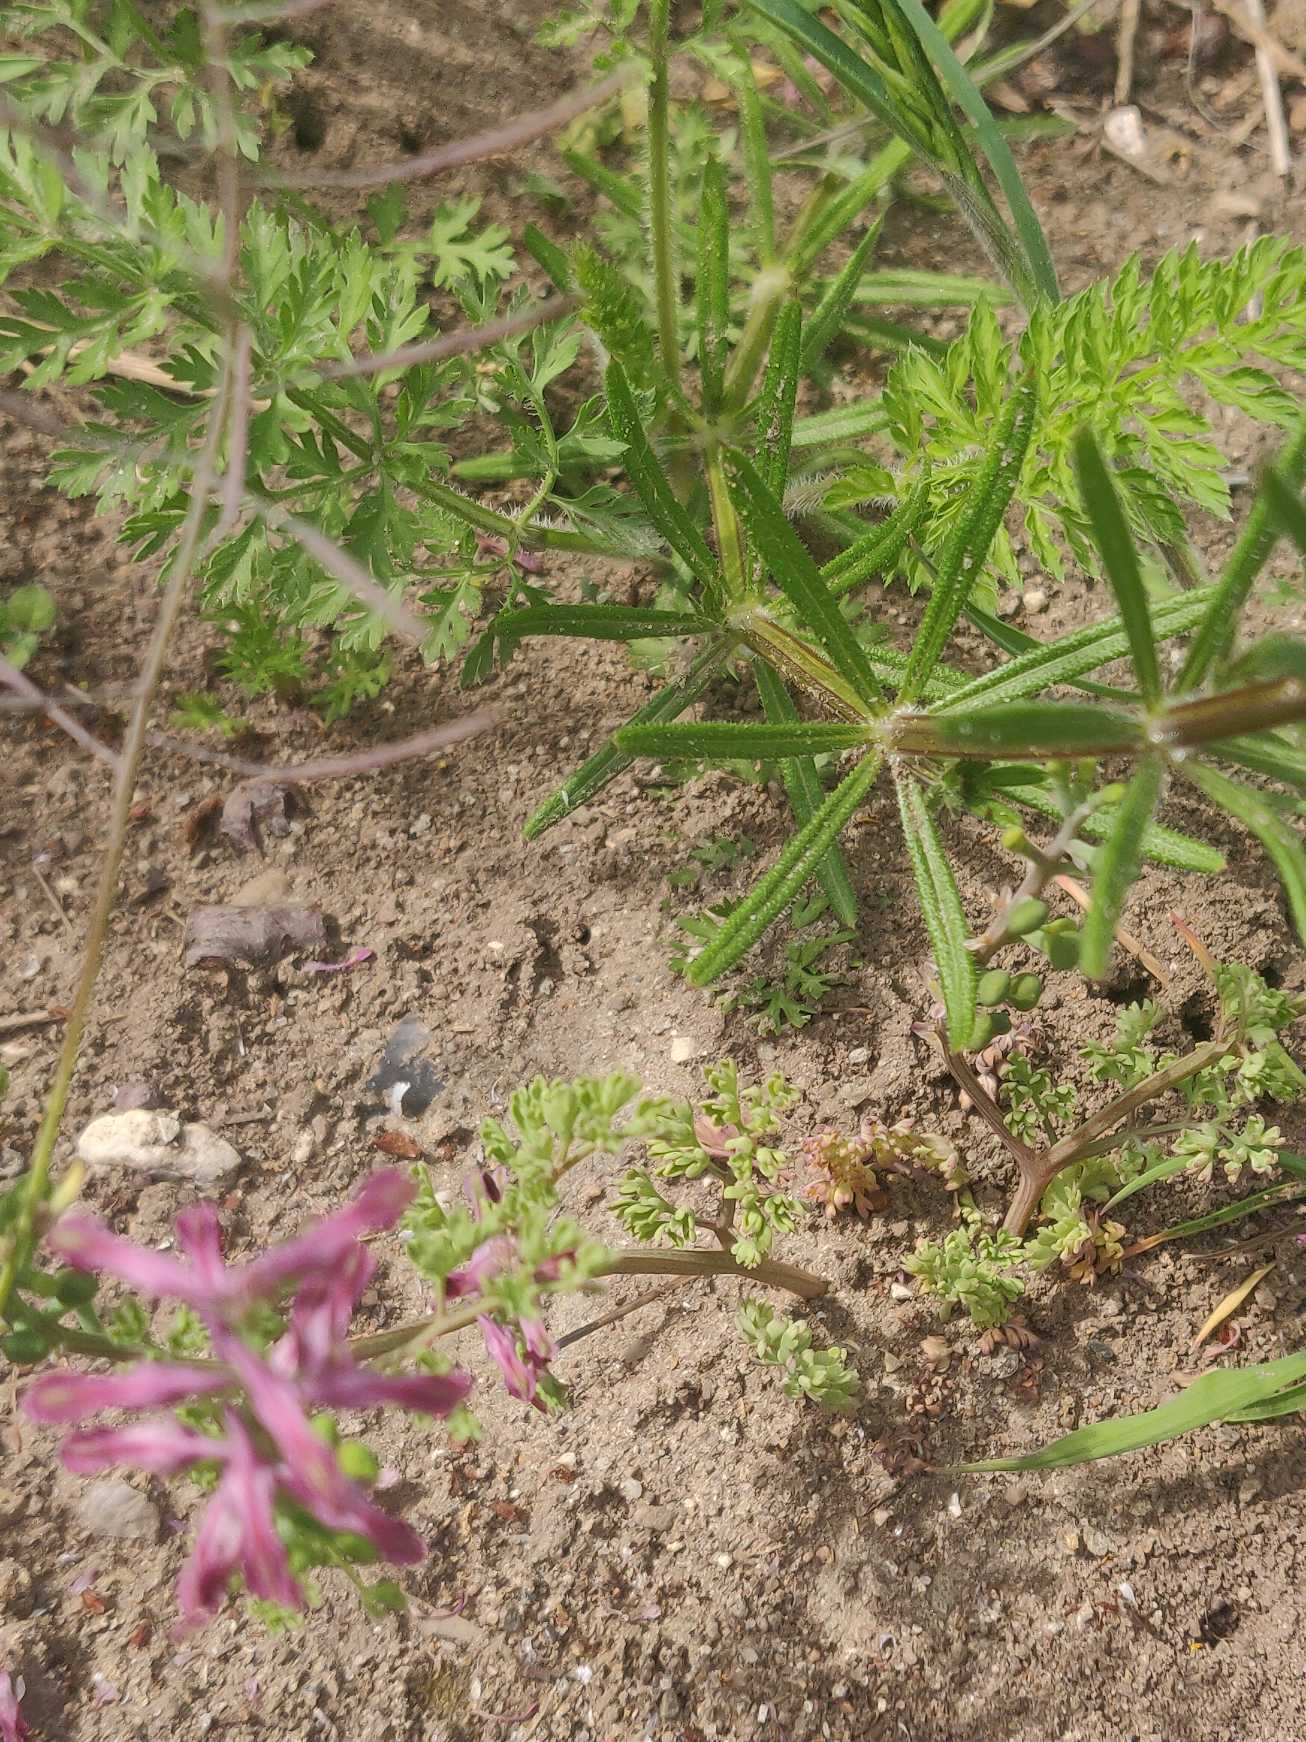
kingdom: Plantae
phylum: Tracheophyta
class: Magnoliopsida
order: Ranunculales
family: Papaveraceae
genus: Fumaria
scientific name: Fumaria officinalis
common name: Læge-jordrøg
